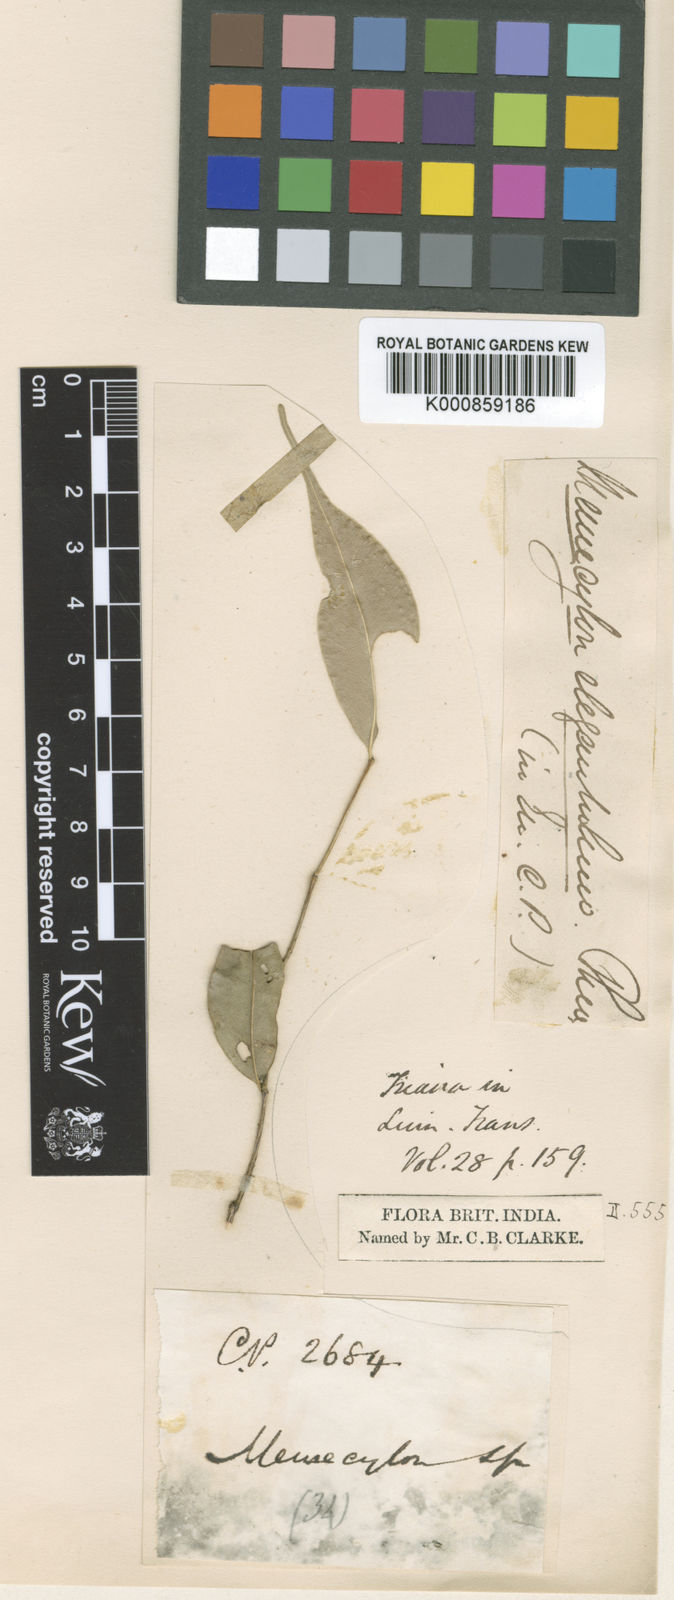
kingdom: Plantae
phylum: Tracheophyta
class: Magnoliopsida
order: Myrtales
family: Melastomataceae
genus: Memecylon
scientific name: Memecylon rostratum
